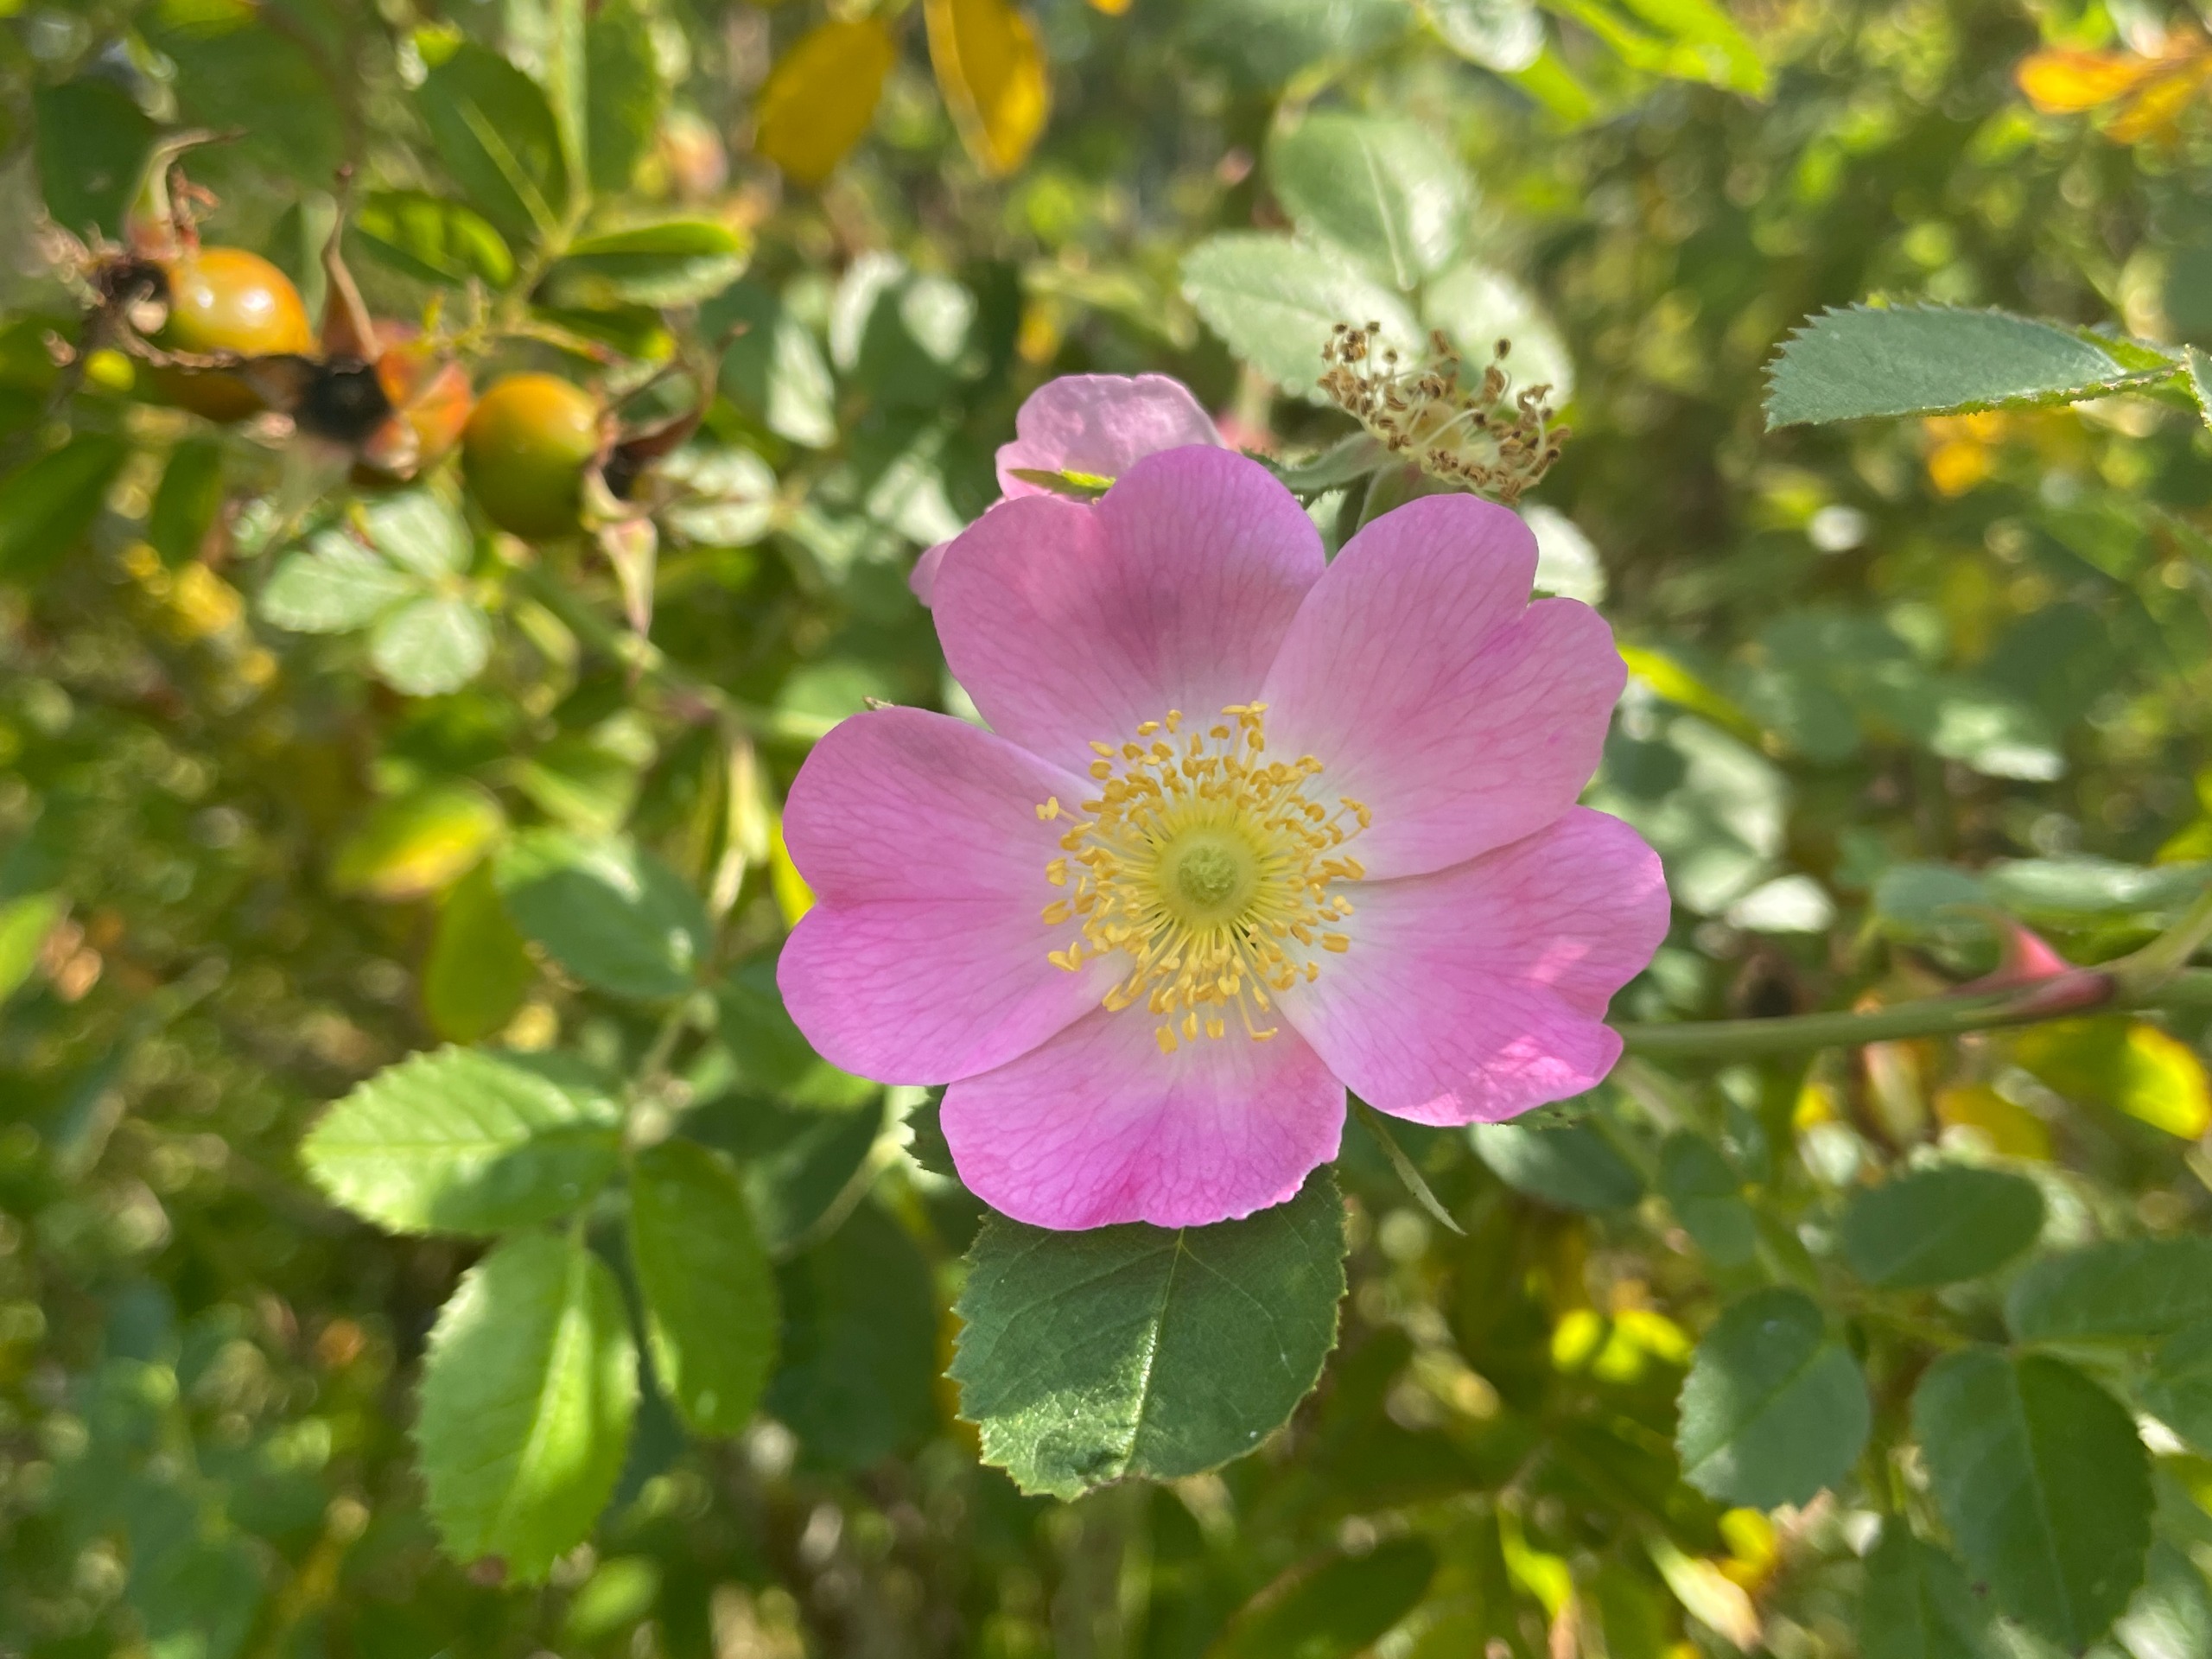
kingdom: Plantae
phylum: Tracheophyta
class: Magnoliopsida
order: Rosales
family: Rosaceae
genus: Rosa
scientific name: Rosa rubiginosa
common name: Æble-rose
